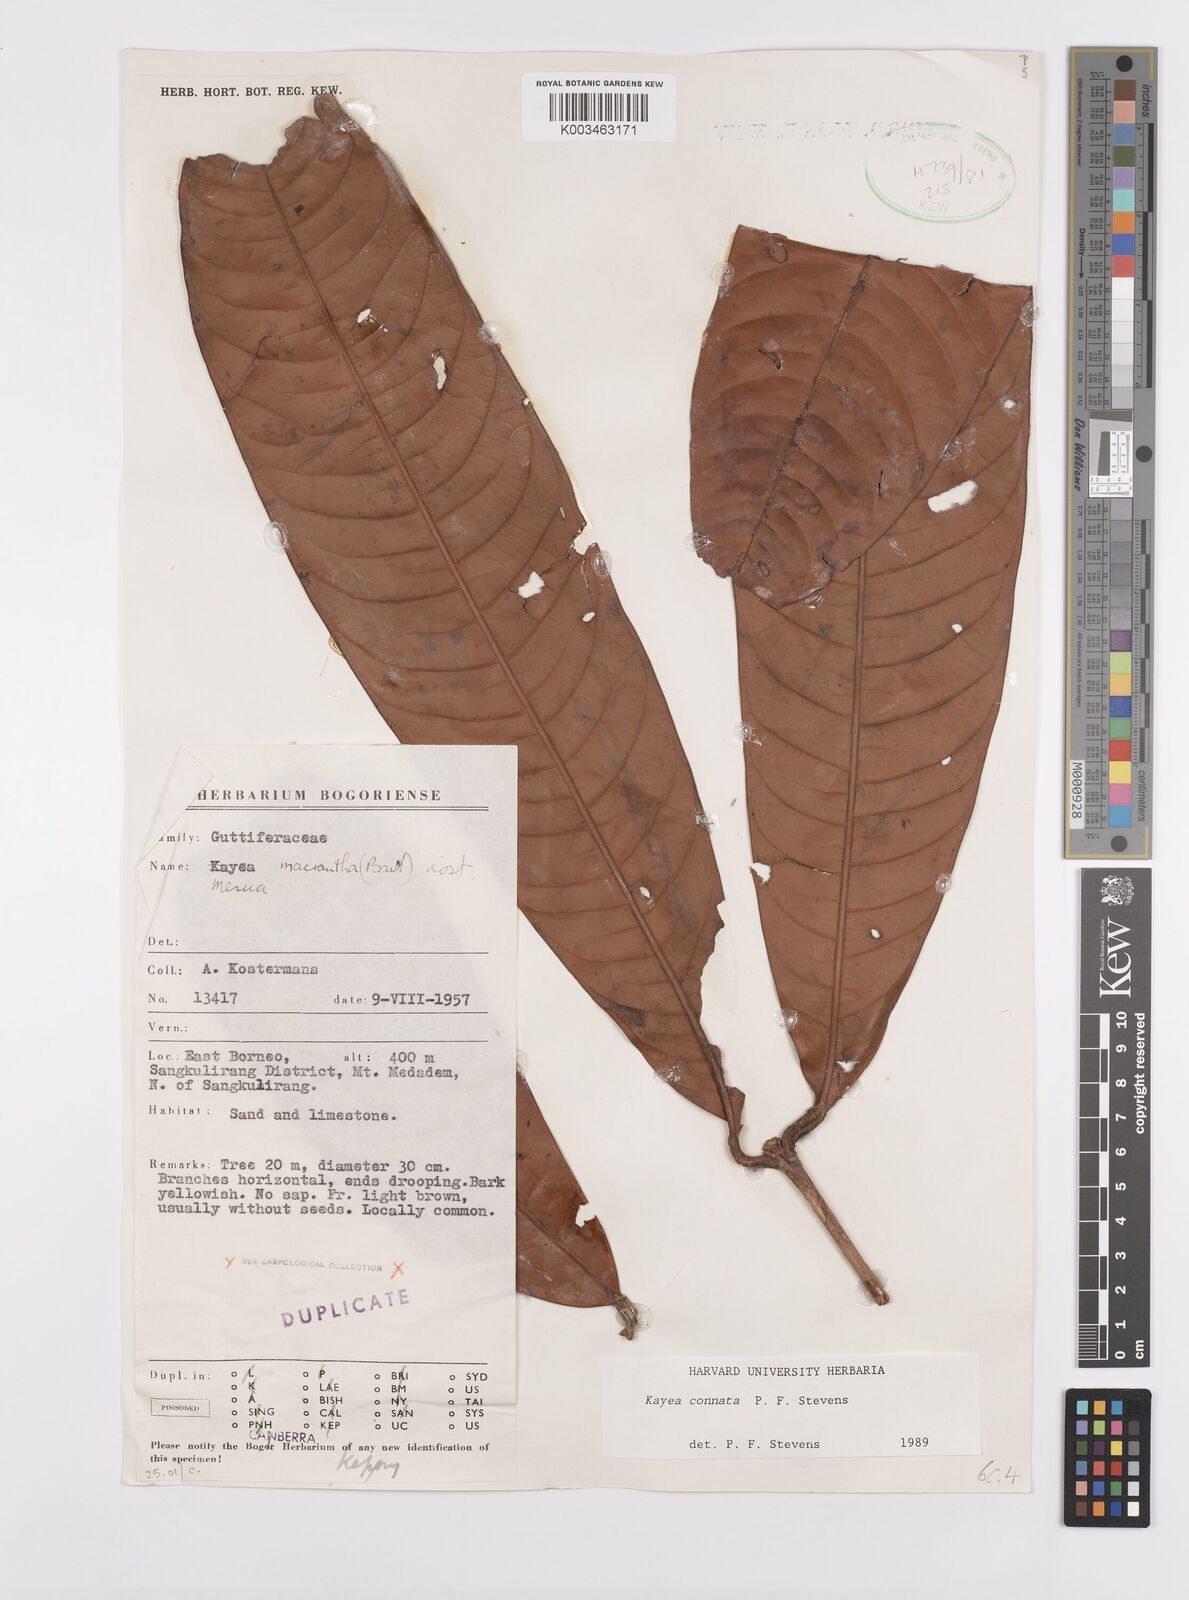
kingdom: Plantae
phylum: Tracheophyta
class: Magnoliopsida
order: Malpighiales
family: Calophyllaceae
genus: Kayea
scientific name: Kayea
